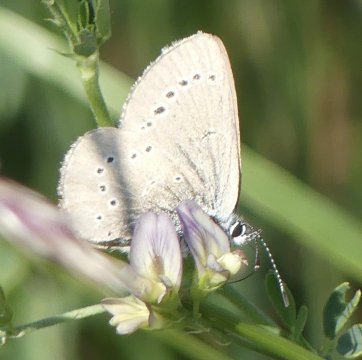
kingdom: Animalia
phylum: Arthropoda
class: Insecta
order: Lepidoptera
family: Lycaenidae
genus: Glaucopsyche
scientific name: Glaucopsyche lygdamus
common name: Silvery Blue
